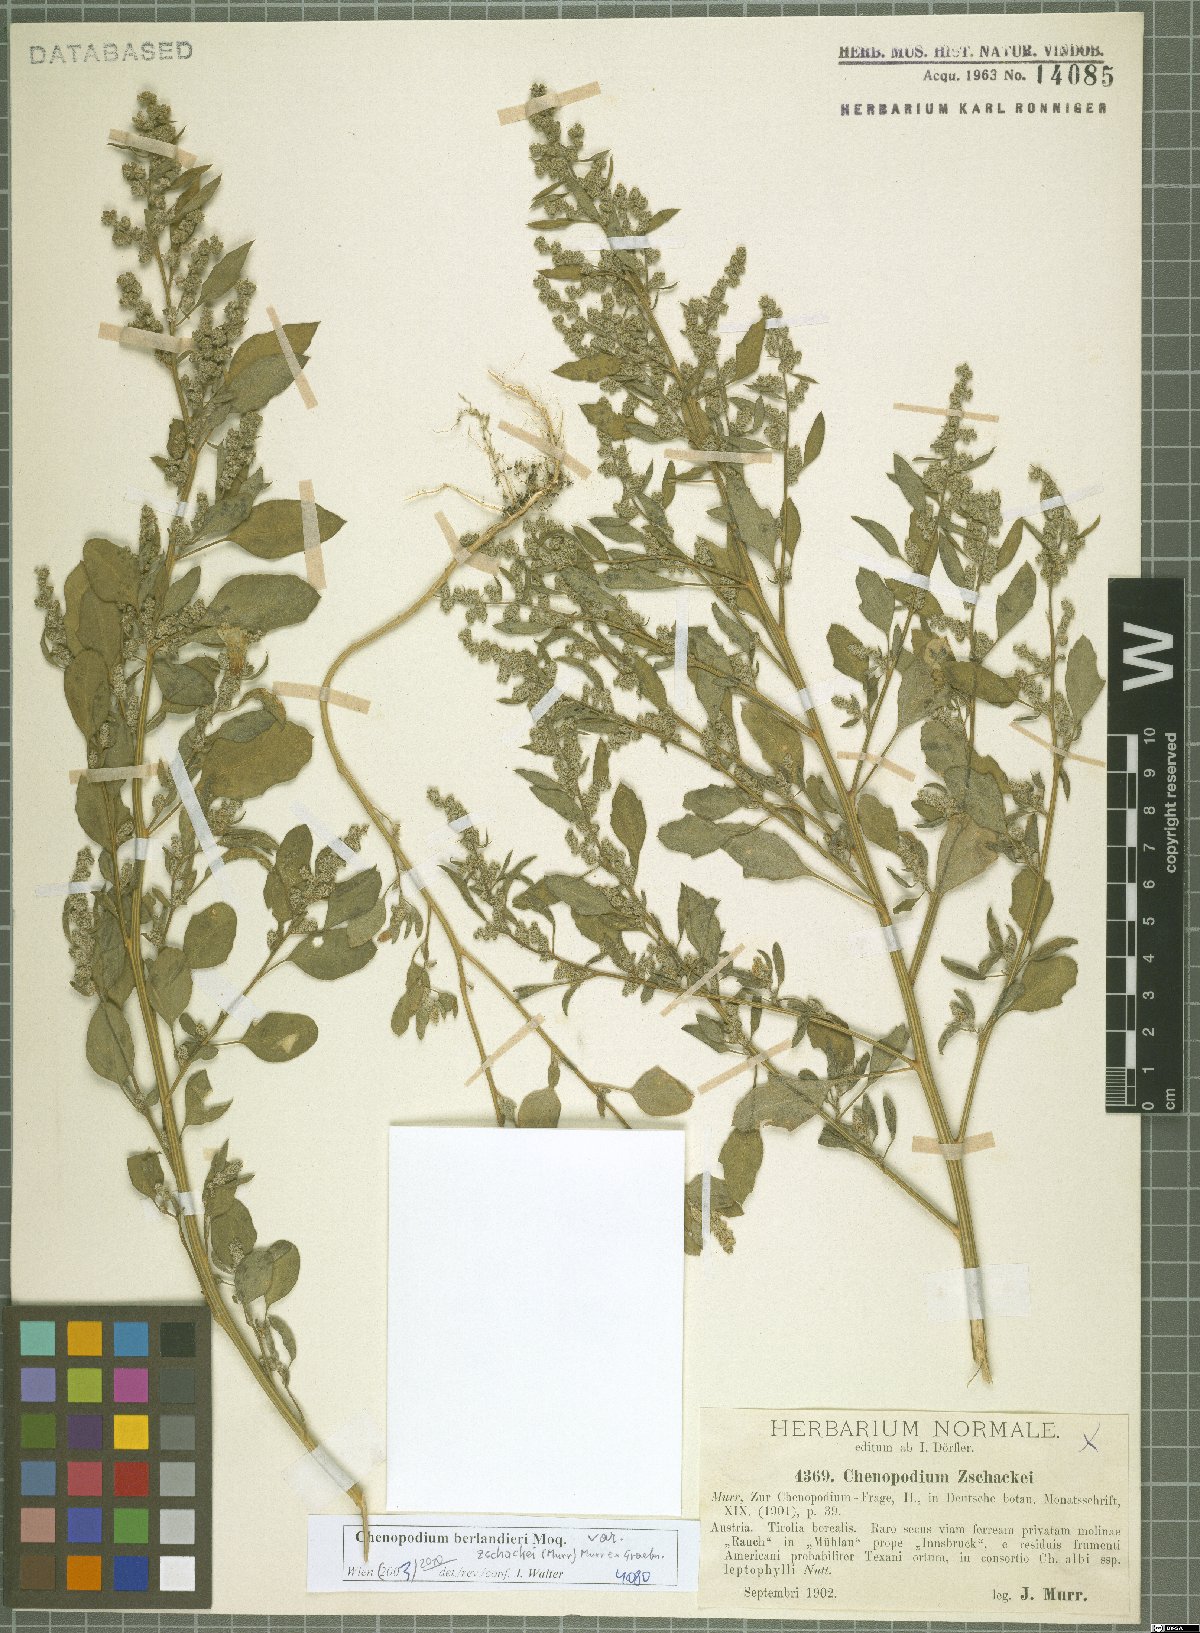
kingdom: Plantae
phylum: Tracheophyta
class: Magnoliopsida
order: Caryophyllales
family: Amaranthaceae
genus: Chenopodium
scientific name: Chenopodium berlandieri
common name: Pit-seed goosefoot
